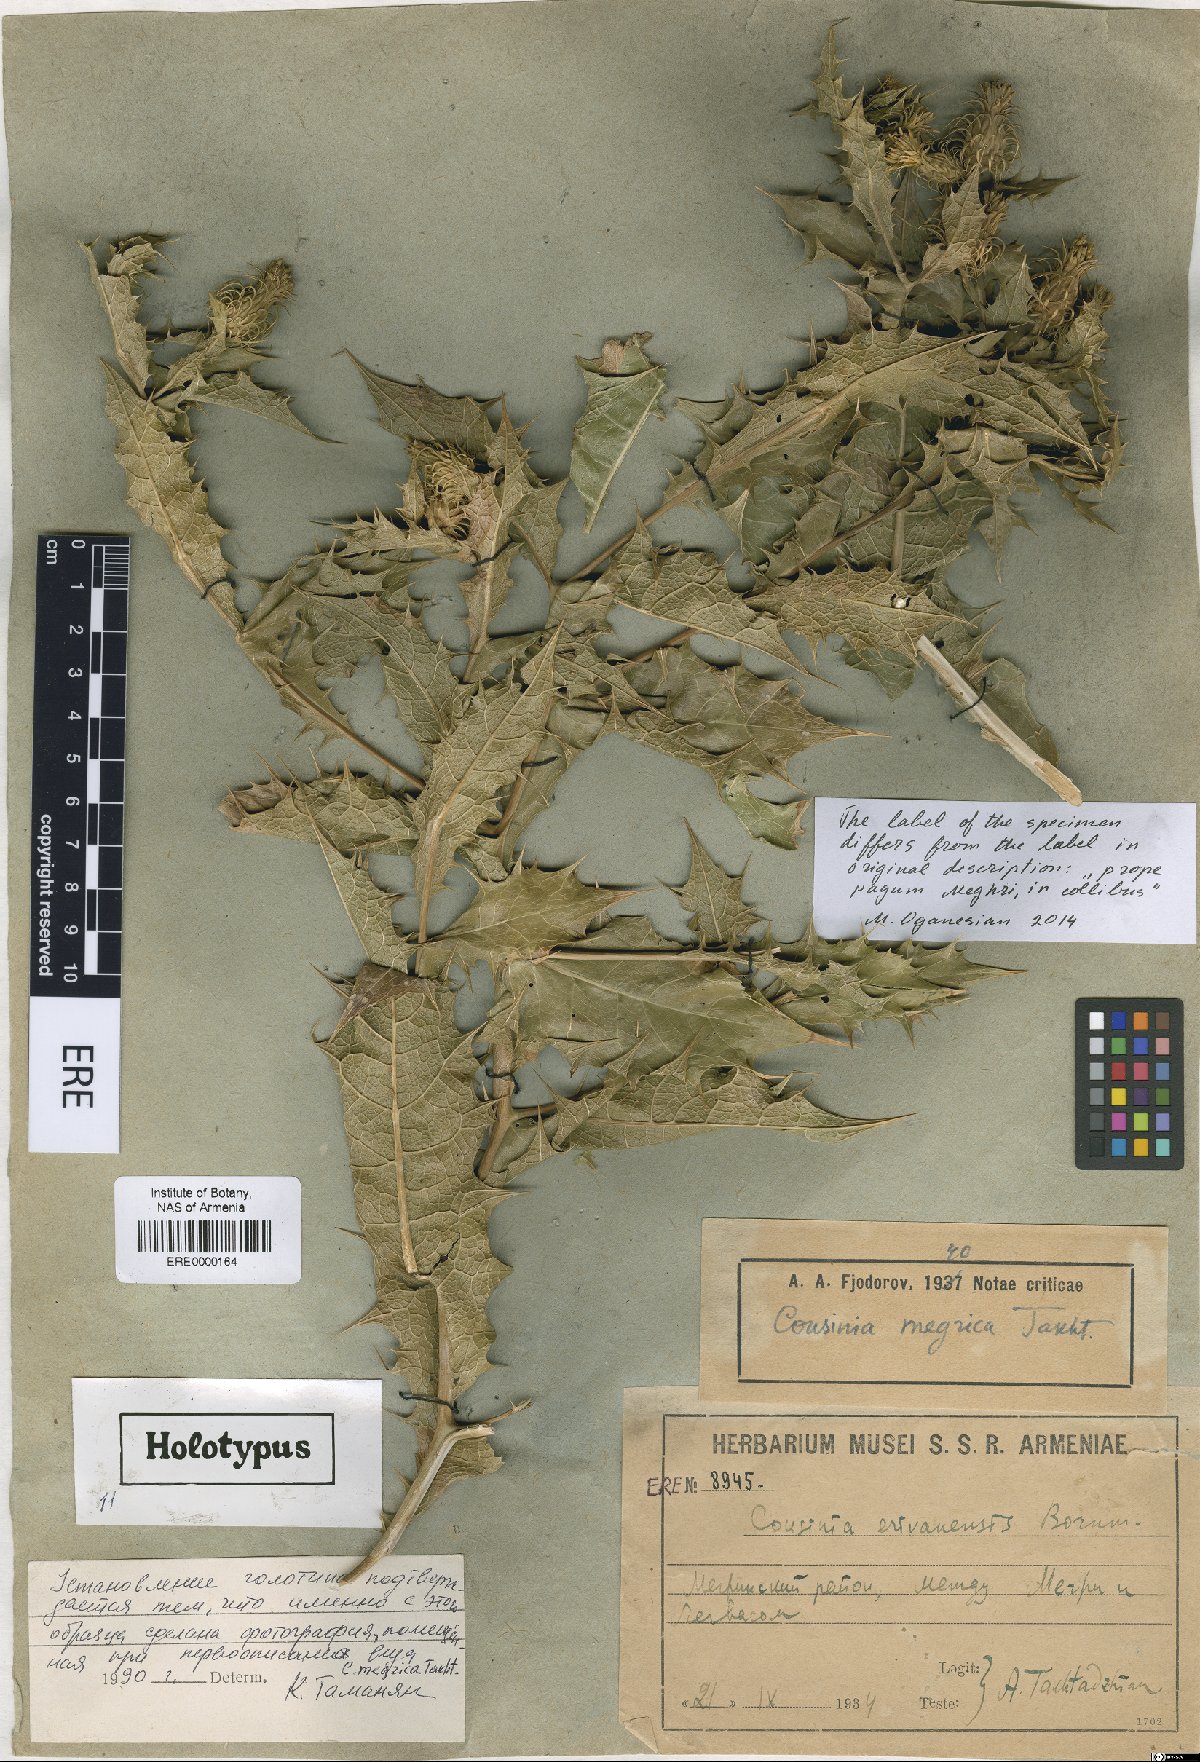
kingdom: Plantae
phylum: Tracheophyta
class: Magnoliopsida
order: Asterales
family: Asteraceae
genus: Cousinia
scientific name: Cousinia meghrica
